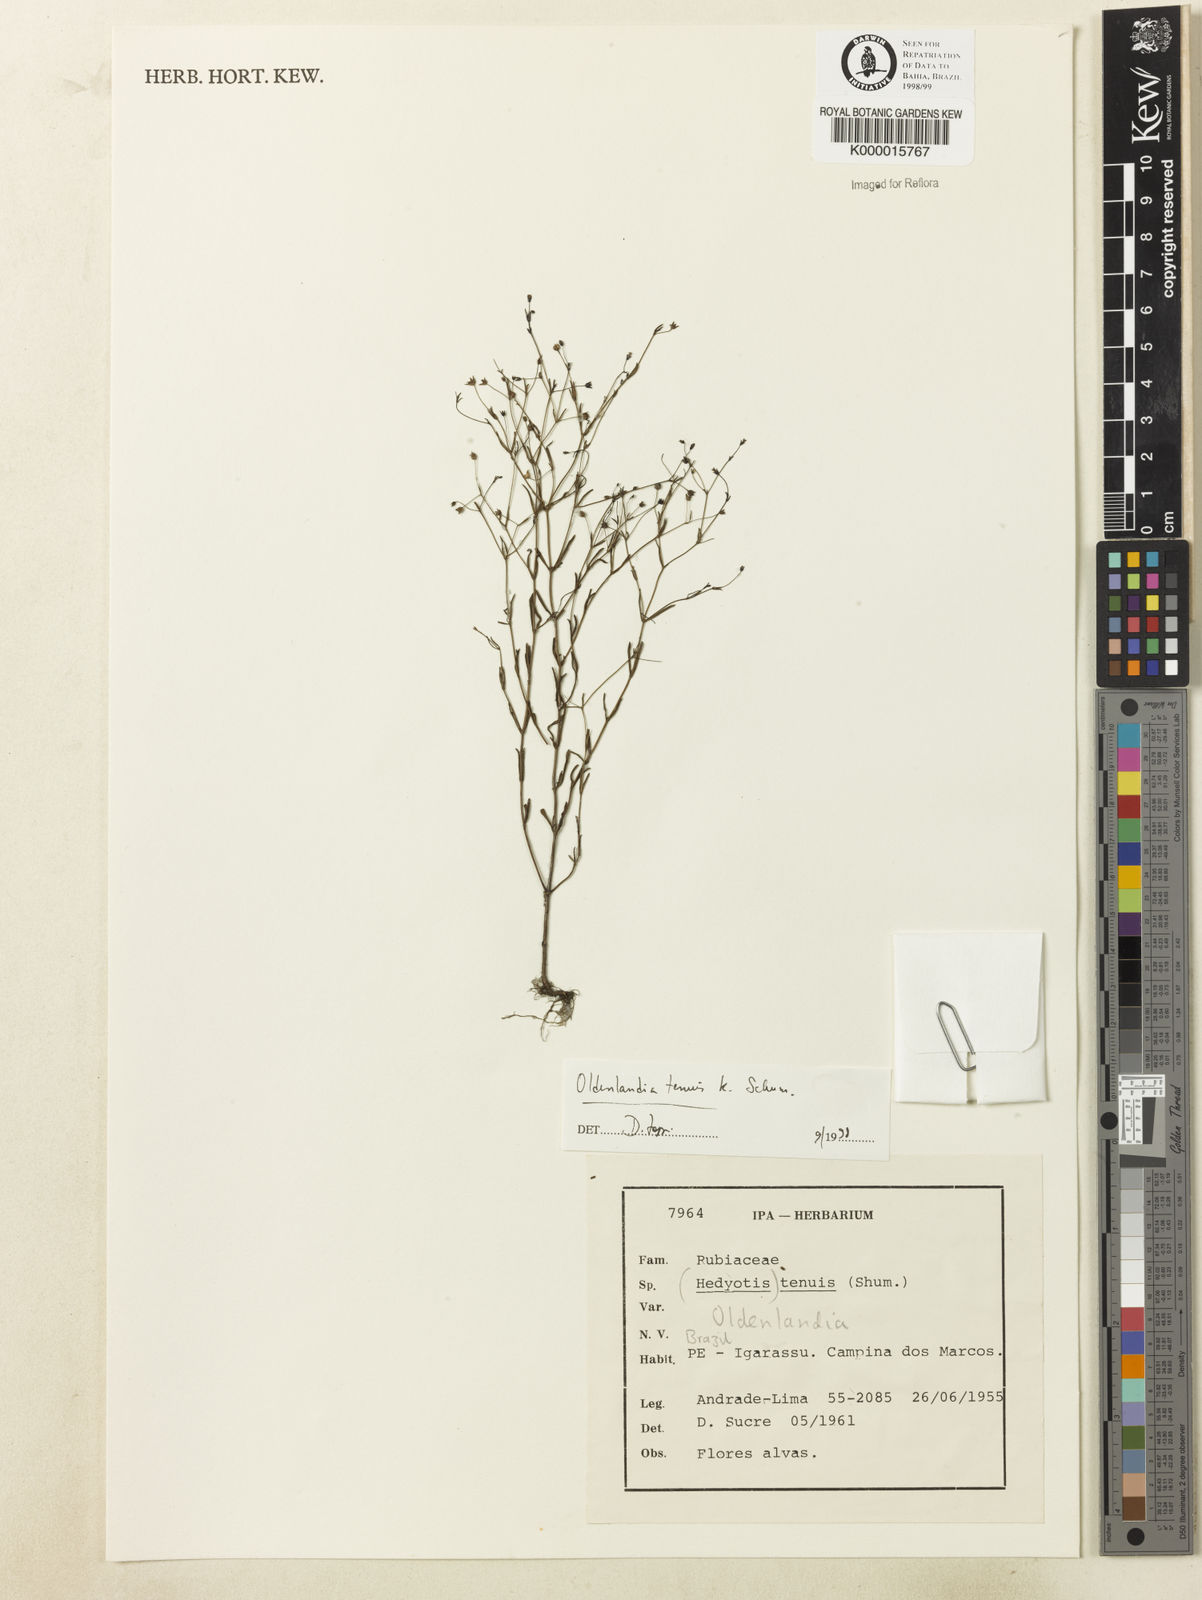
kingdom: Plantae
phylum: Tracheophyta
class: Magnoliopsida
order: Gentianales
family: Rubiaceae
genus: Oldenlandia
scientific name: Oldenlandia tenuis
